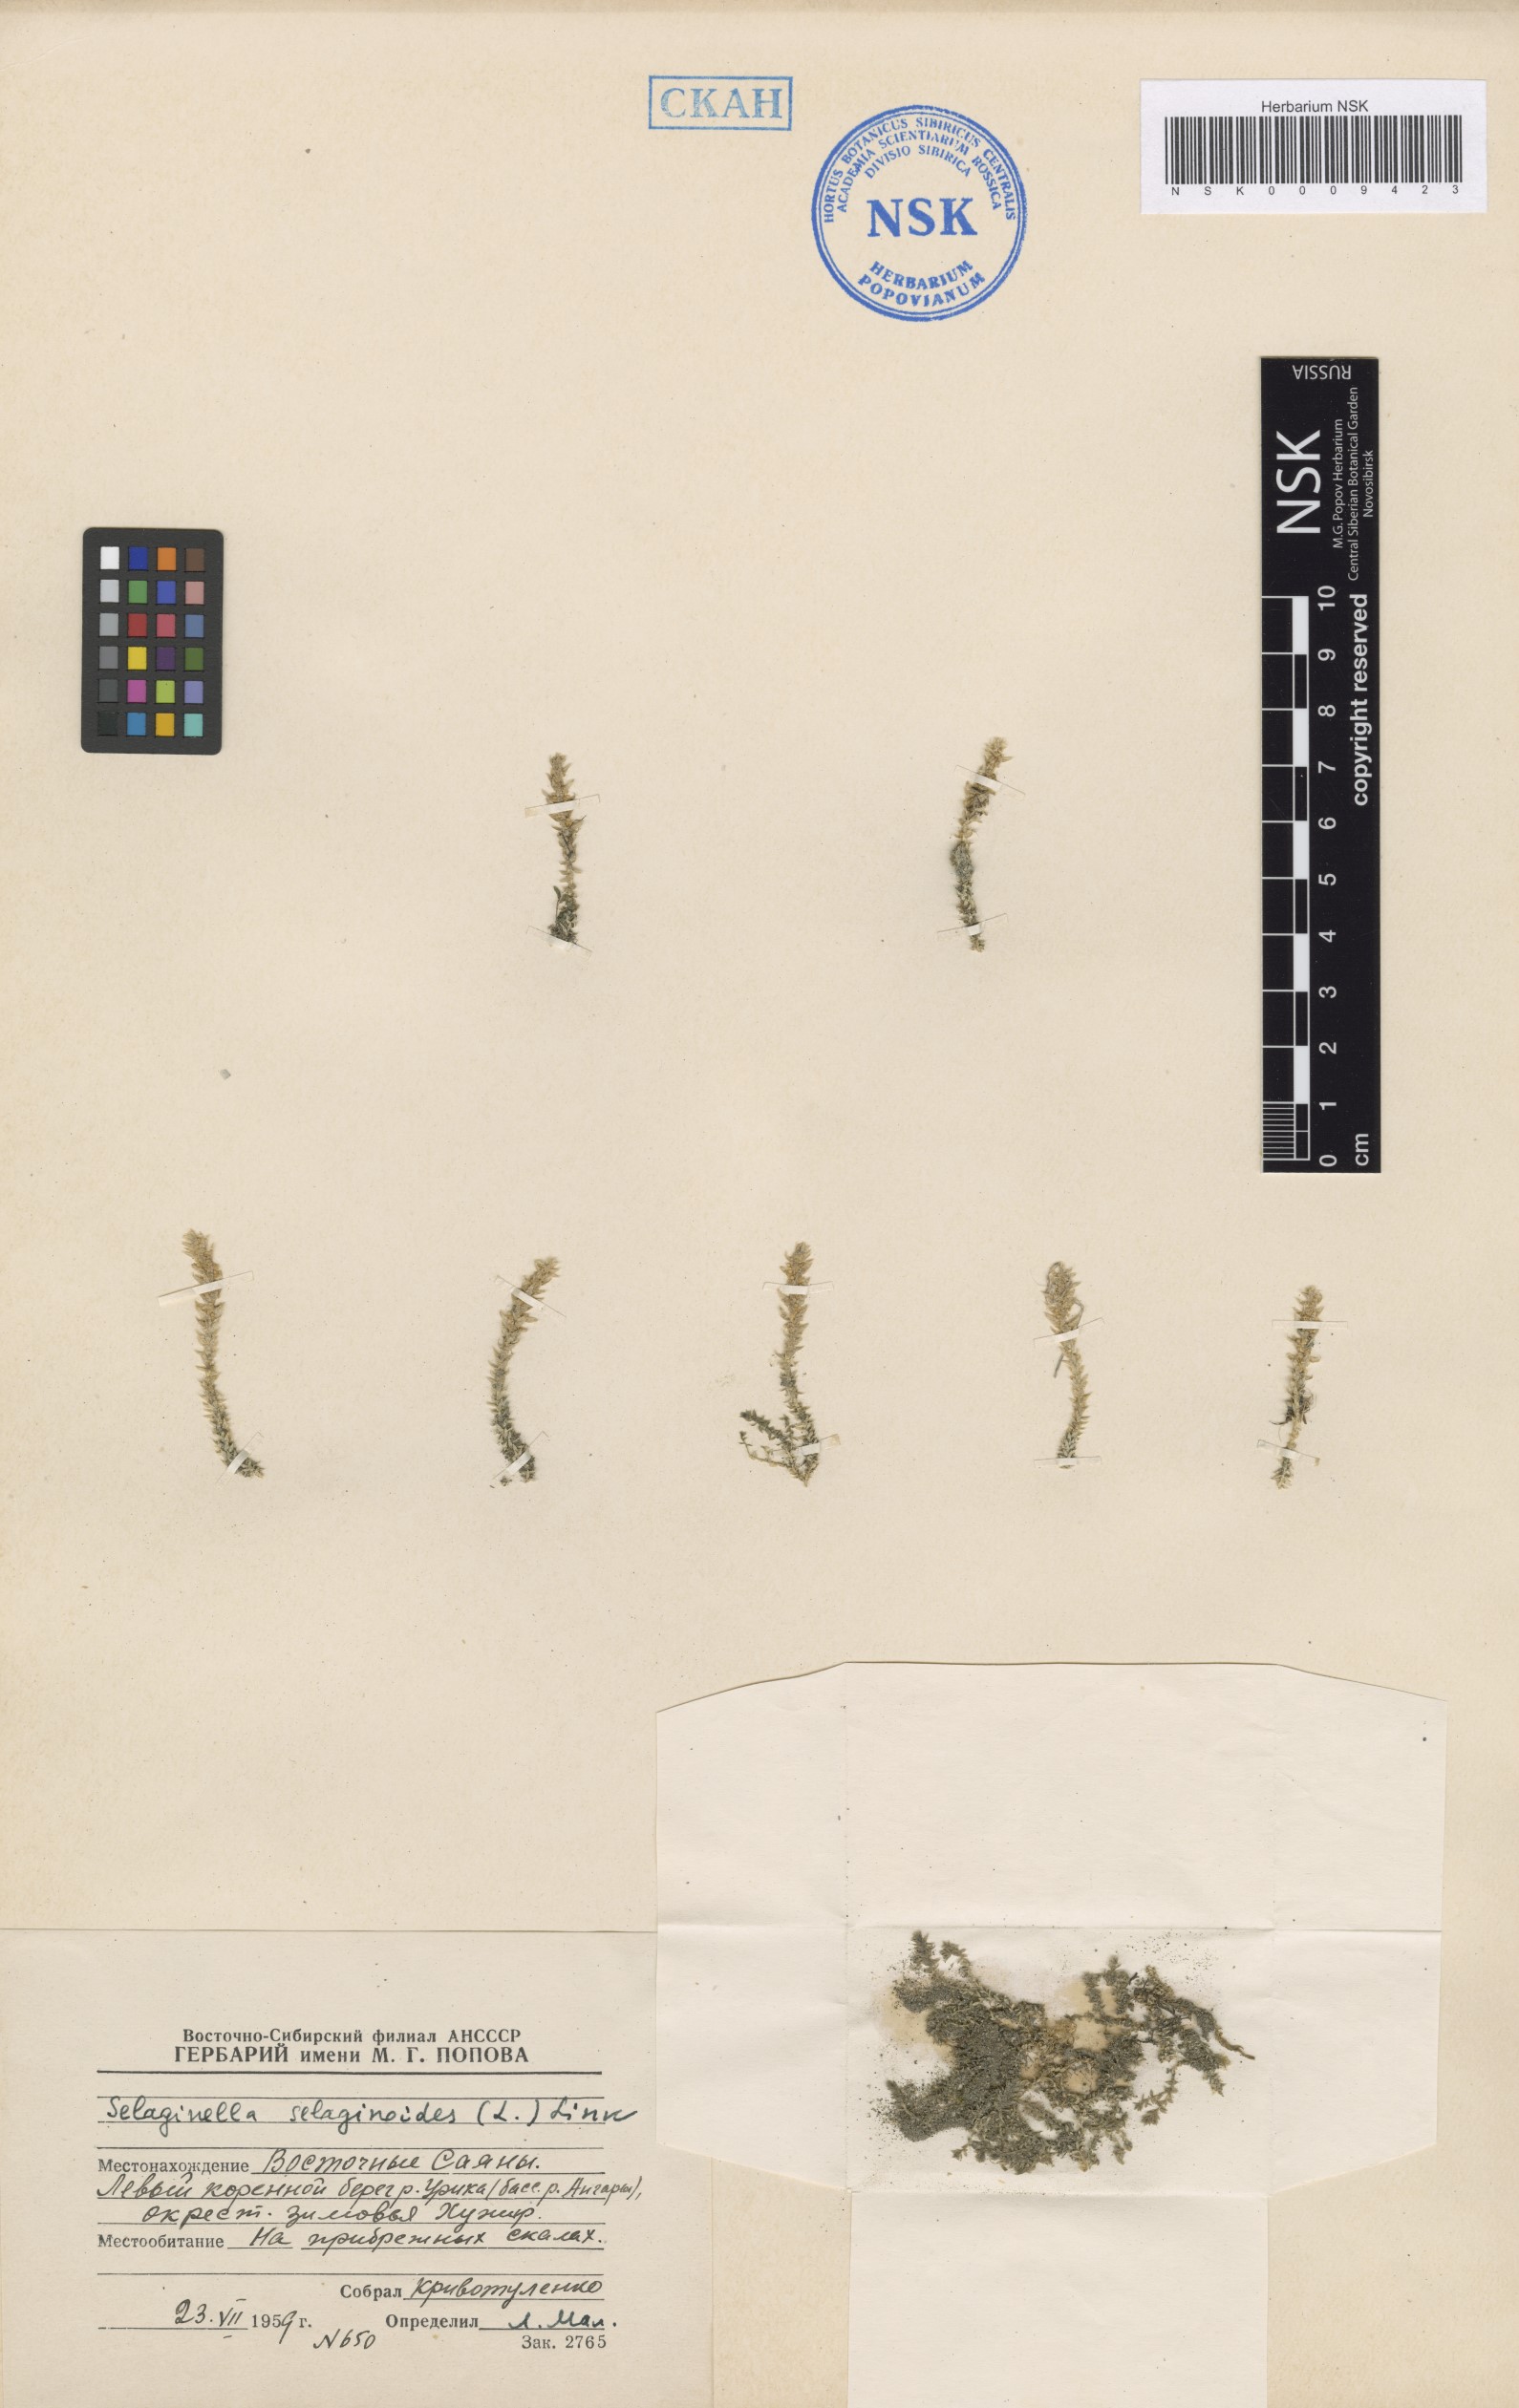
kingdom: Plantae
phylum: Tracheophyta
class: Lycopodiopsida
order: Selaginellales
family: Selaginellaceae
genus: Selaginella
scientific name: Selaginella selaginoides
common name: Prickly mountain-moss
